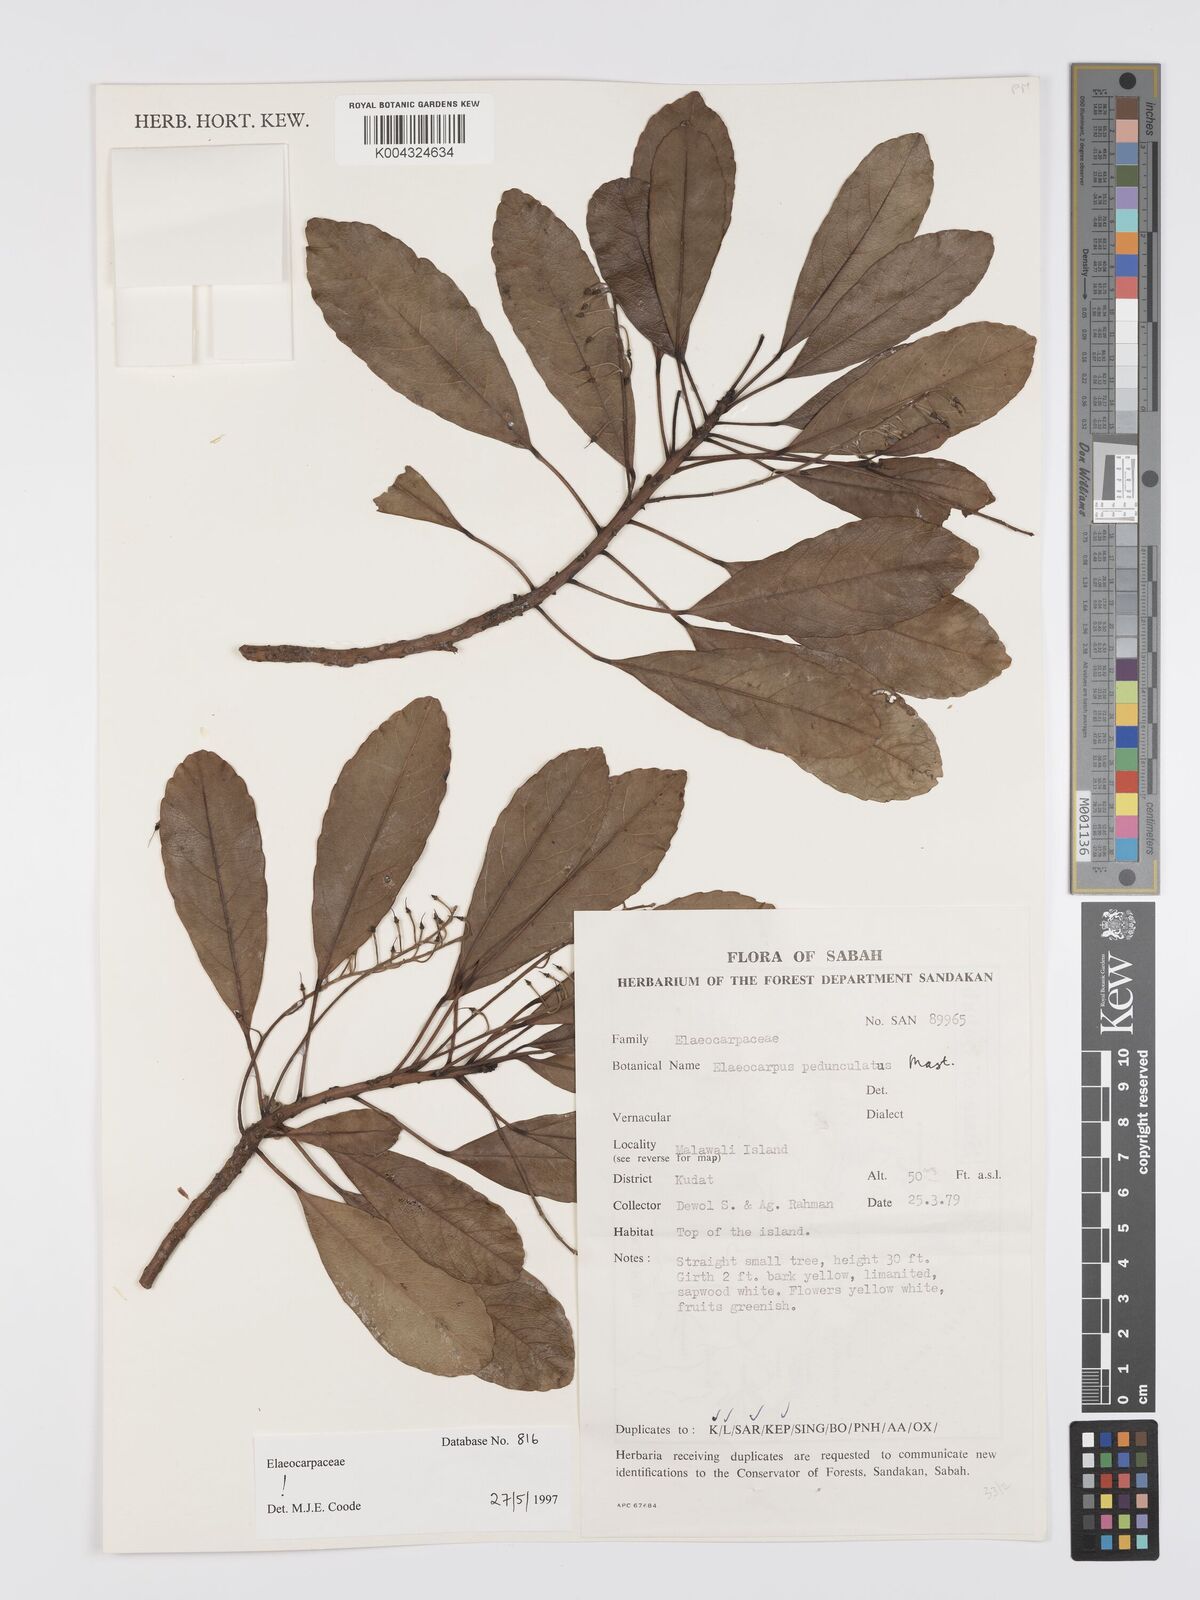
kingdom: Plantae
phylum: Tracheophyta
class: Magnoliopsida
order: Oxalidales
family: Elaeocarpaceae
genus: Elaeocarpus
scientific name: Elaeocarpus pedunculatus
